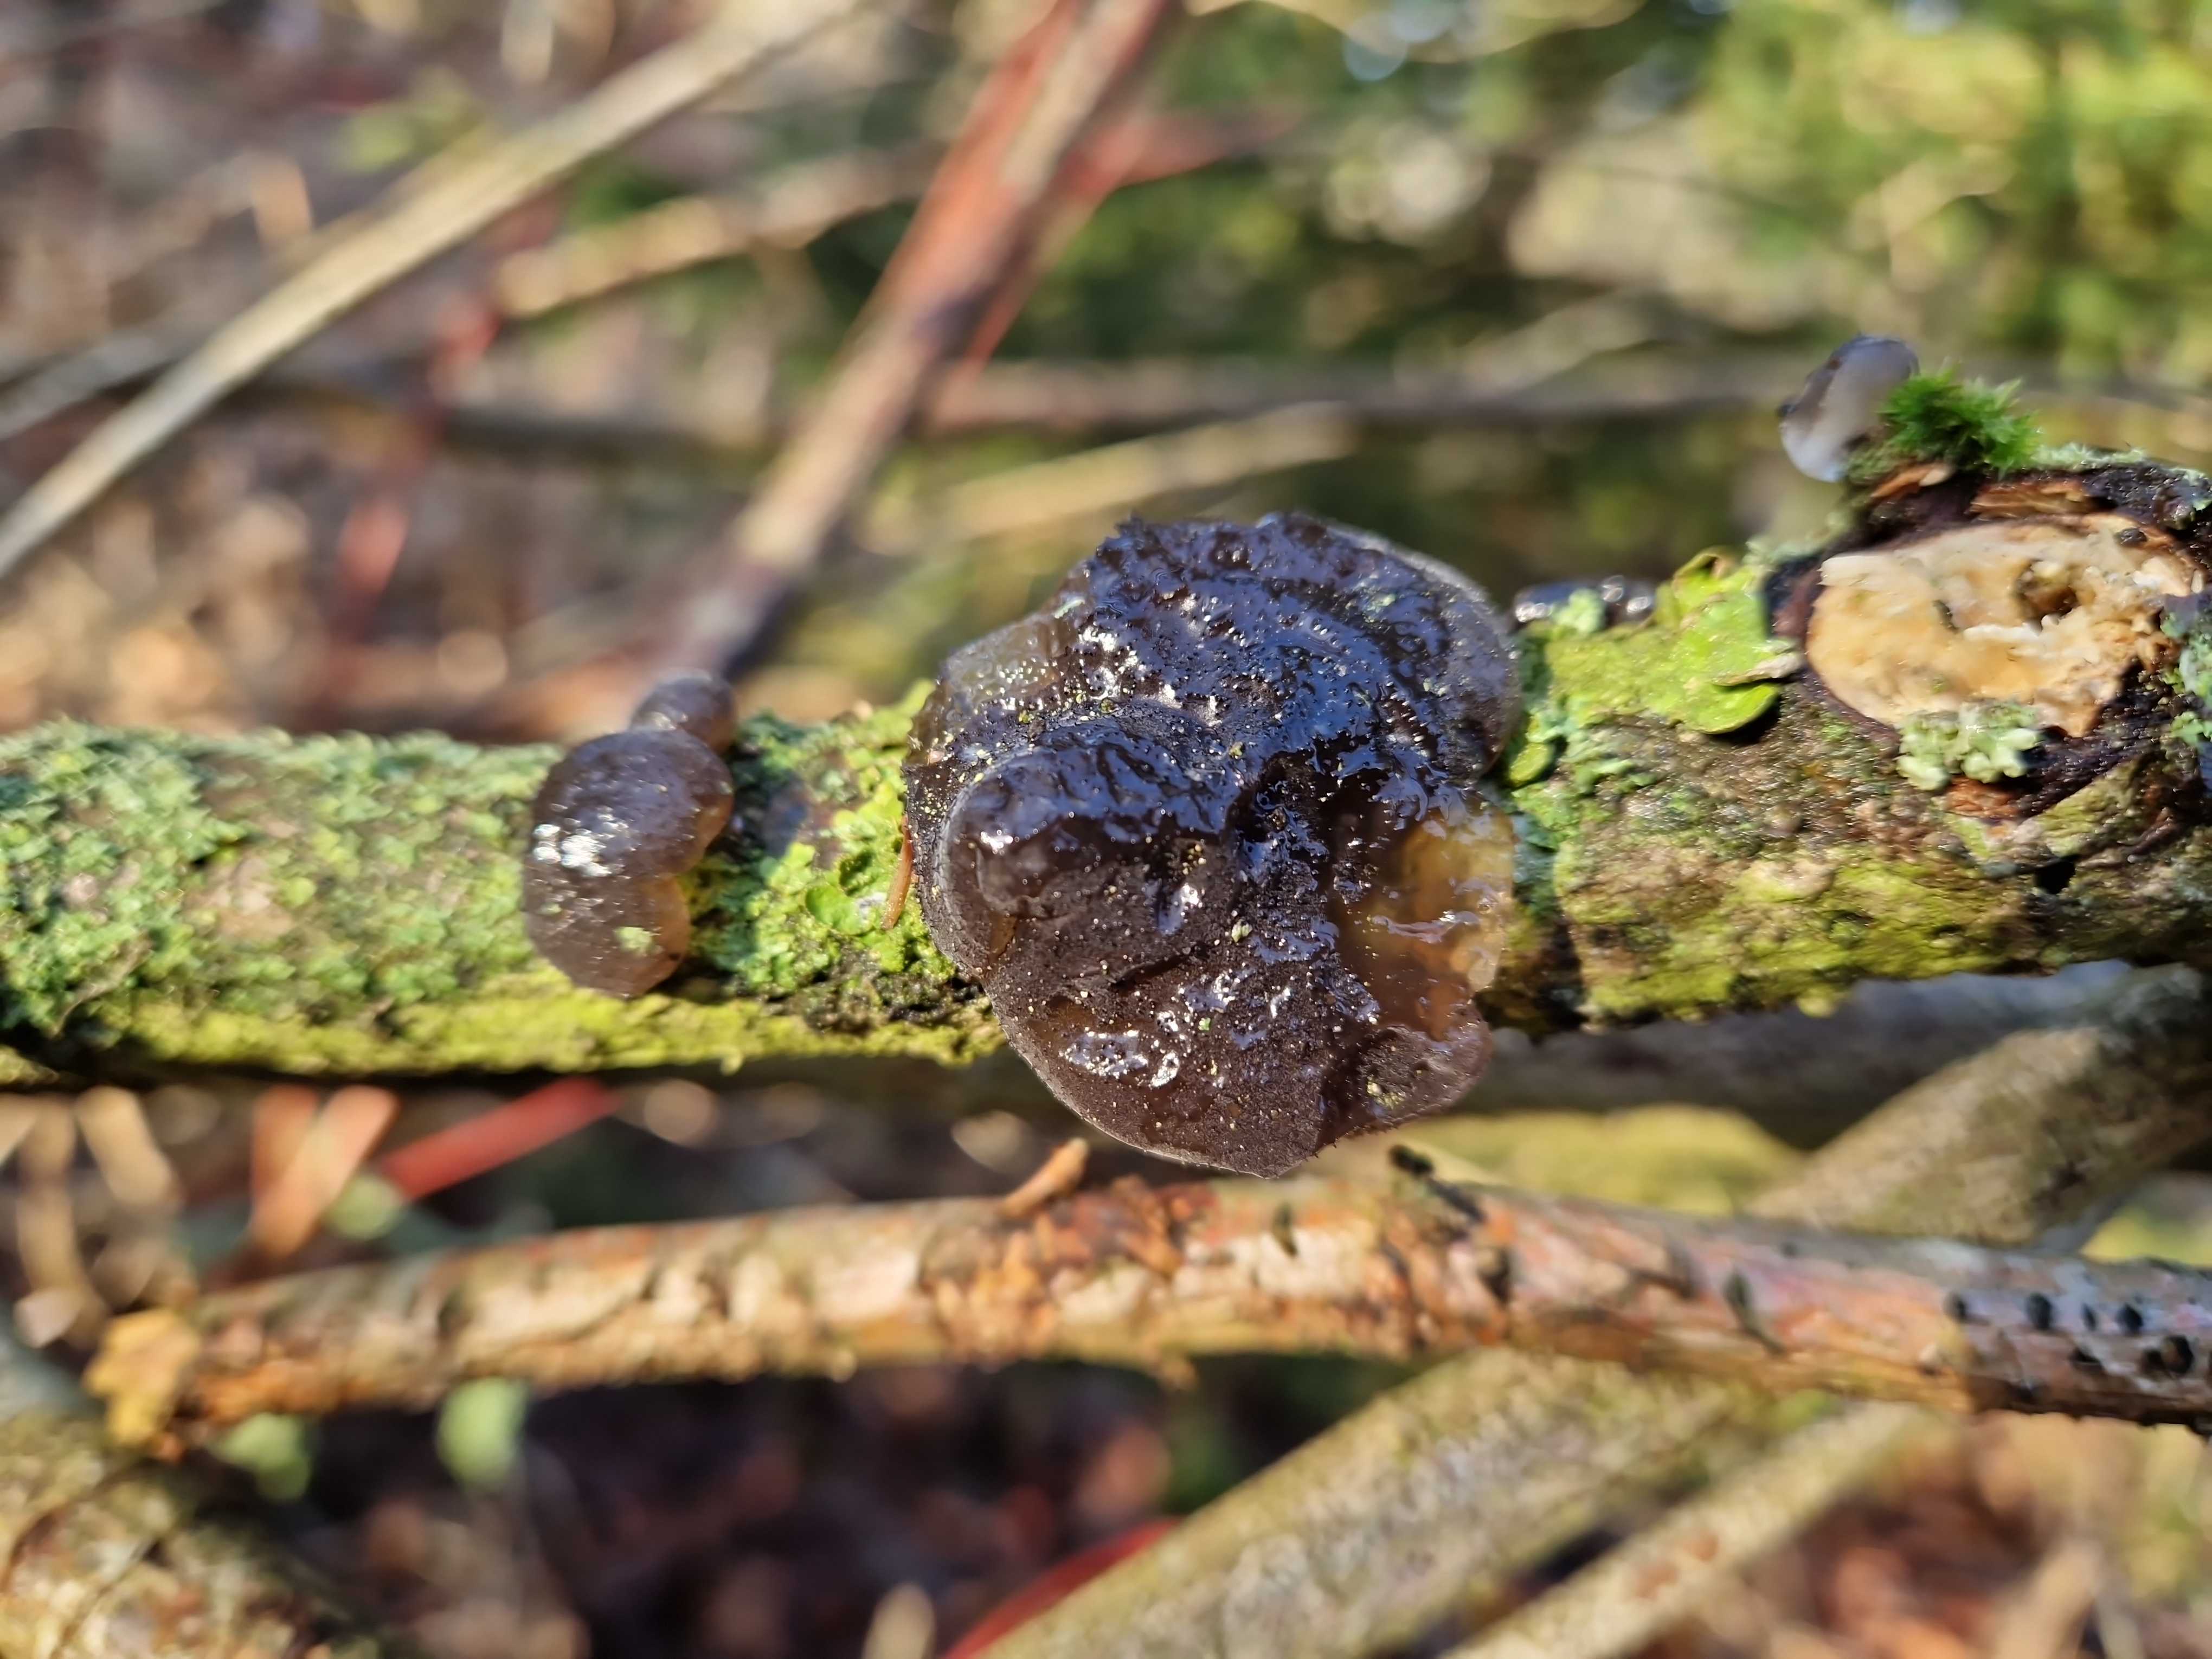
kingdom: Fungi
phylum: Basidiomycota
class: Agaricomycetes
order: Auriculariales
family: Auriculariaceae
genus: Exidia
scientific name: Exidia glandulosa
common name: ege-bævretop
